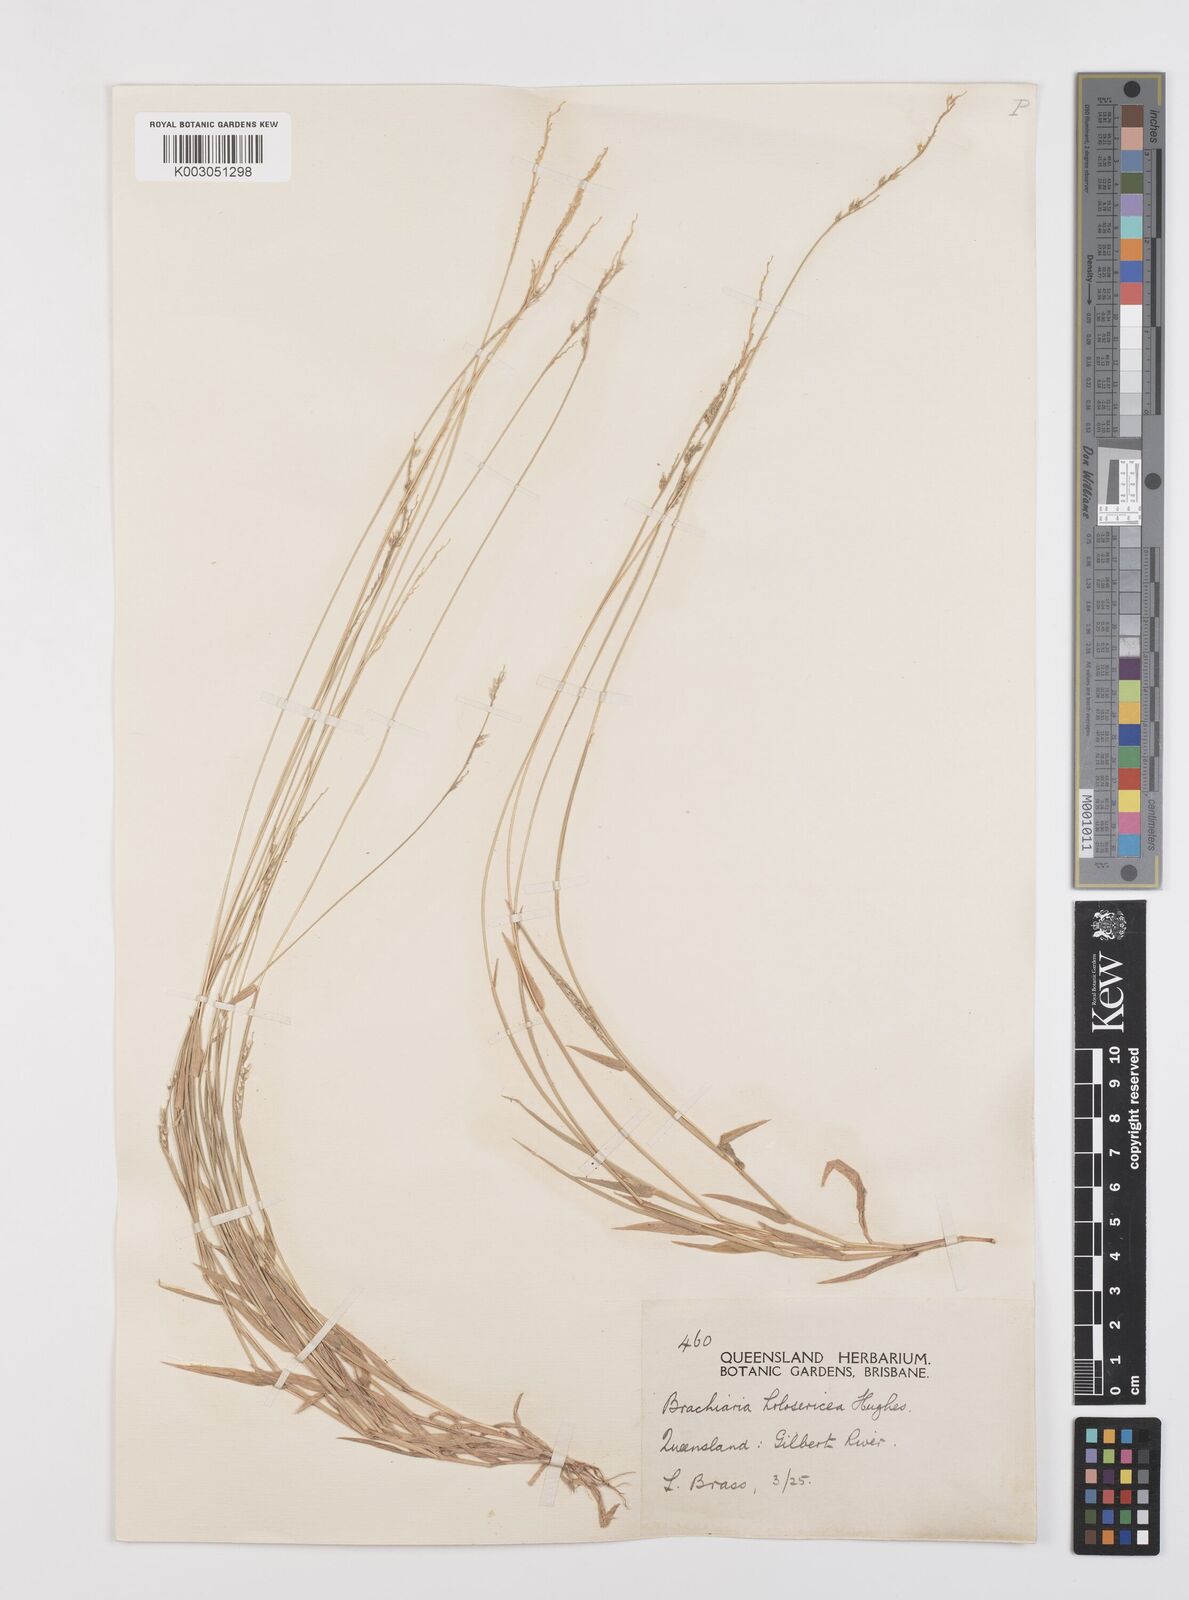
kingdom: Plantae
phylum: Tracheophyta
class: Liliopsida
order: Poales
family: Poaceae
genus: Urochloa
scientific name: Urochloa holosericea
